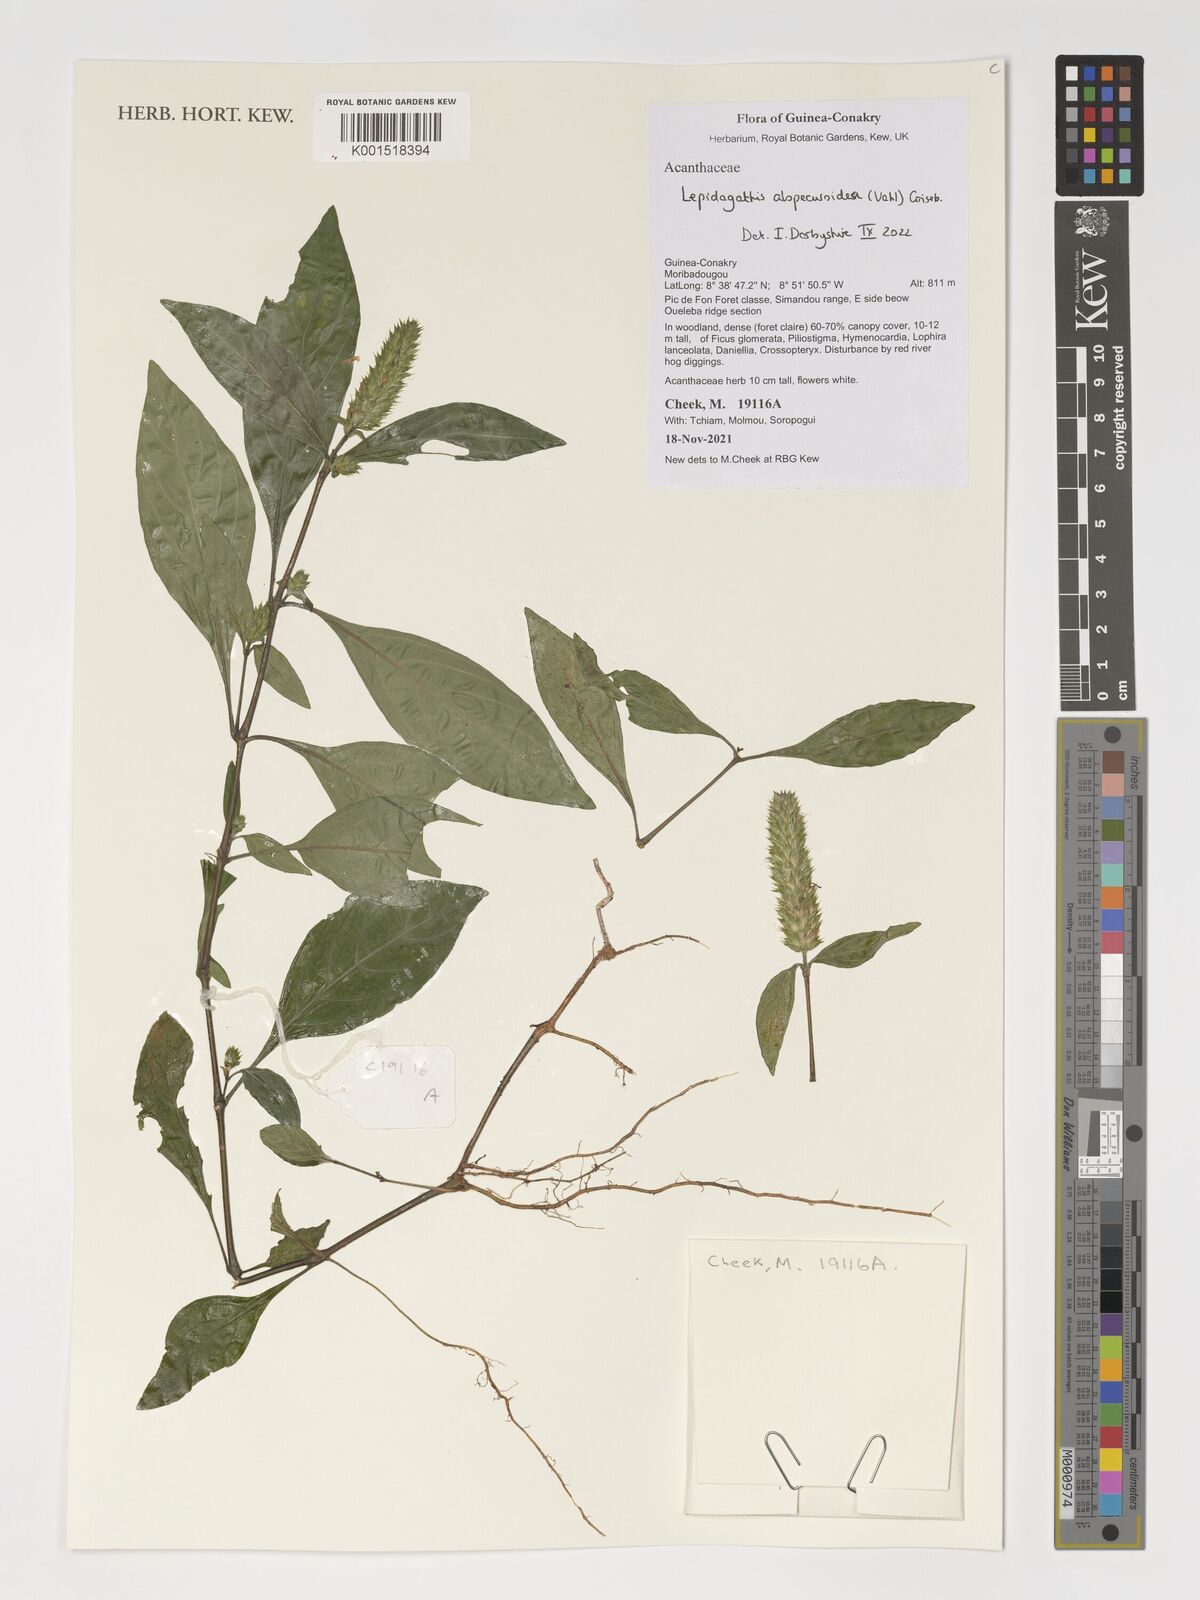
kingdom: Plantae
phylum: Tracheophyta
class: Magnoliopsida
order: Lamiales
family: Acanthaceae
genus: Lepidagathis
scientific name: Lepidagathis alopecuroidea
